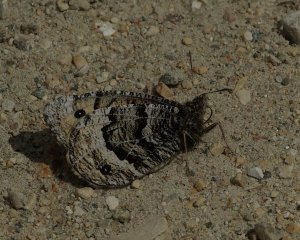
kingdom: Animalia
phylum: Arthropoda
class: Insecta
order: Lepidoptera
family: Nymphalidae
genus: Oeneis
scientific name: Oeneis alberta
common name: Alberta Arctic
